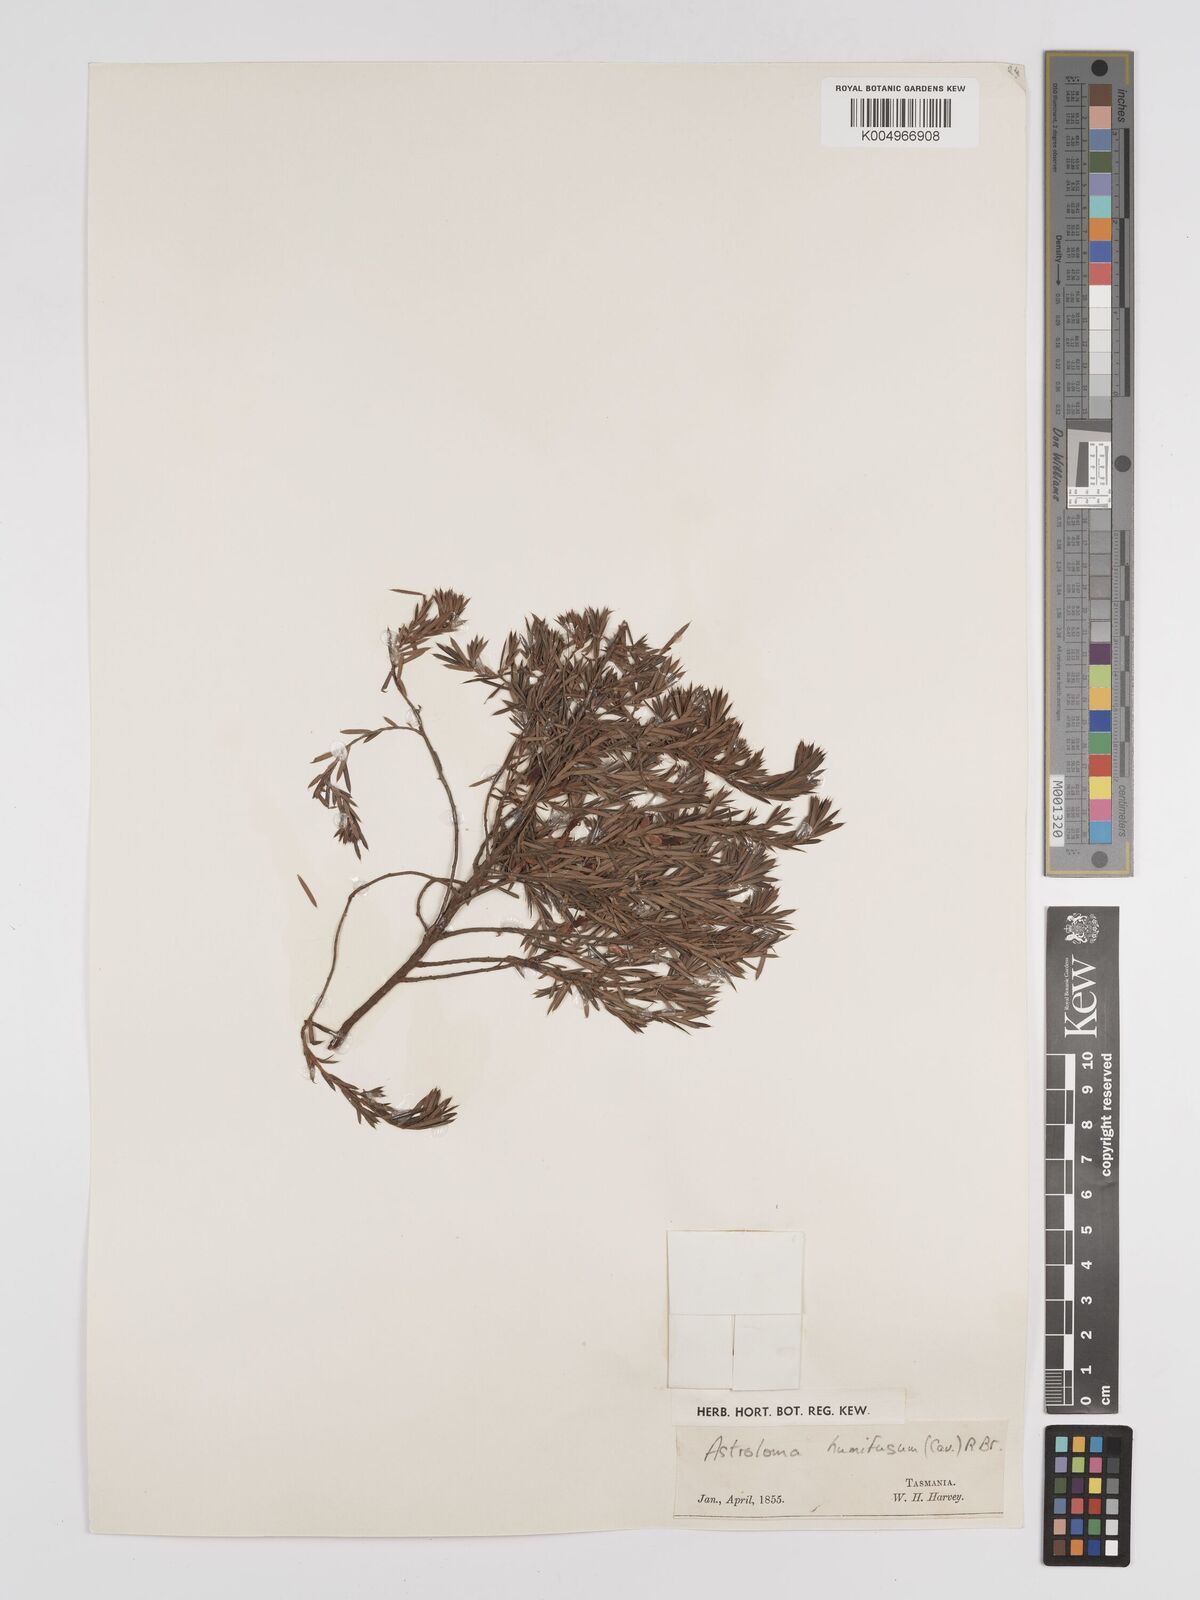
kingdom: Plantae
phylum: Tracheophyta
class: Magnoliopsida
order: Ericales
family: Ericaceae
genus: Styphelia
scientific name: Styphelia humifusa
